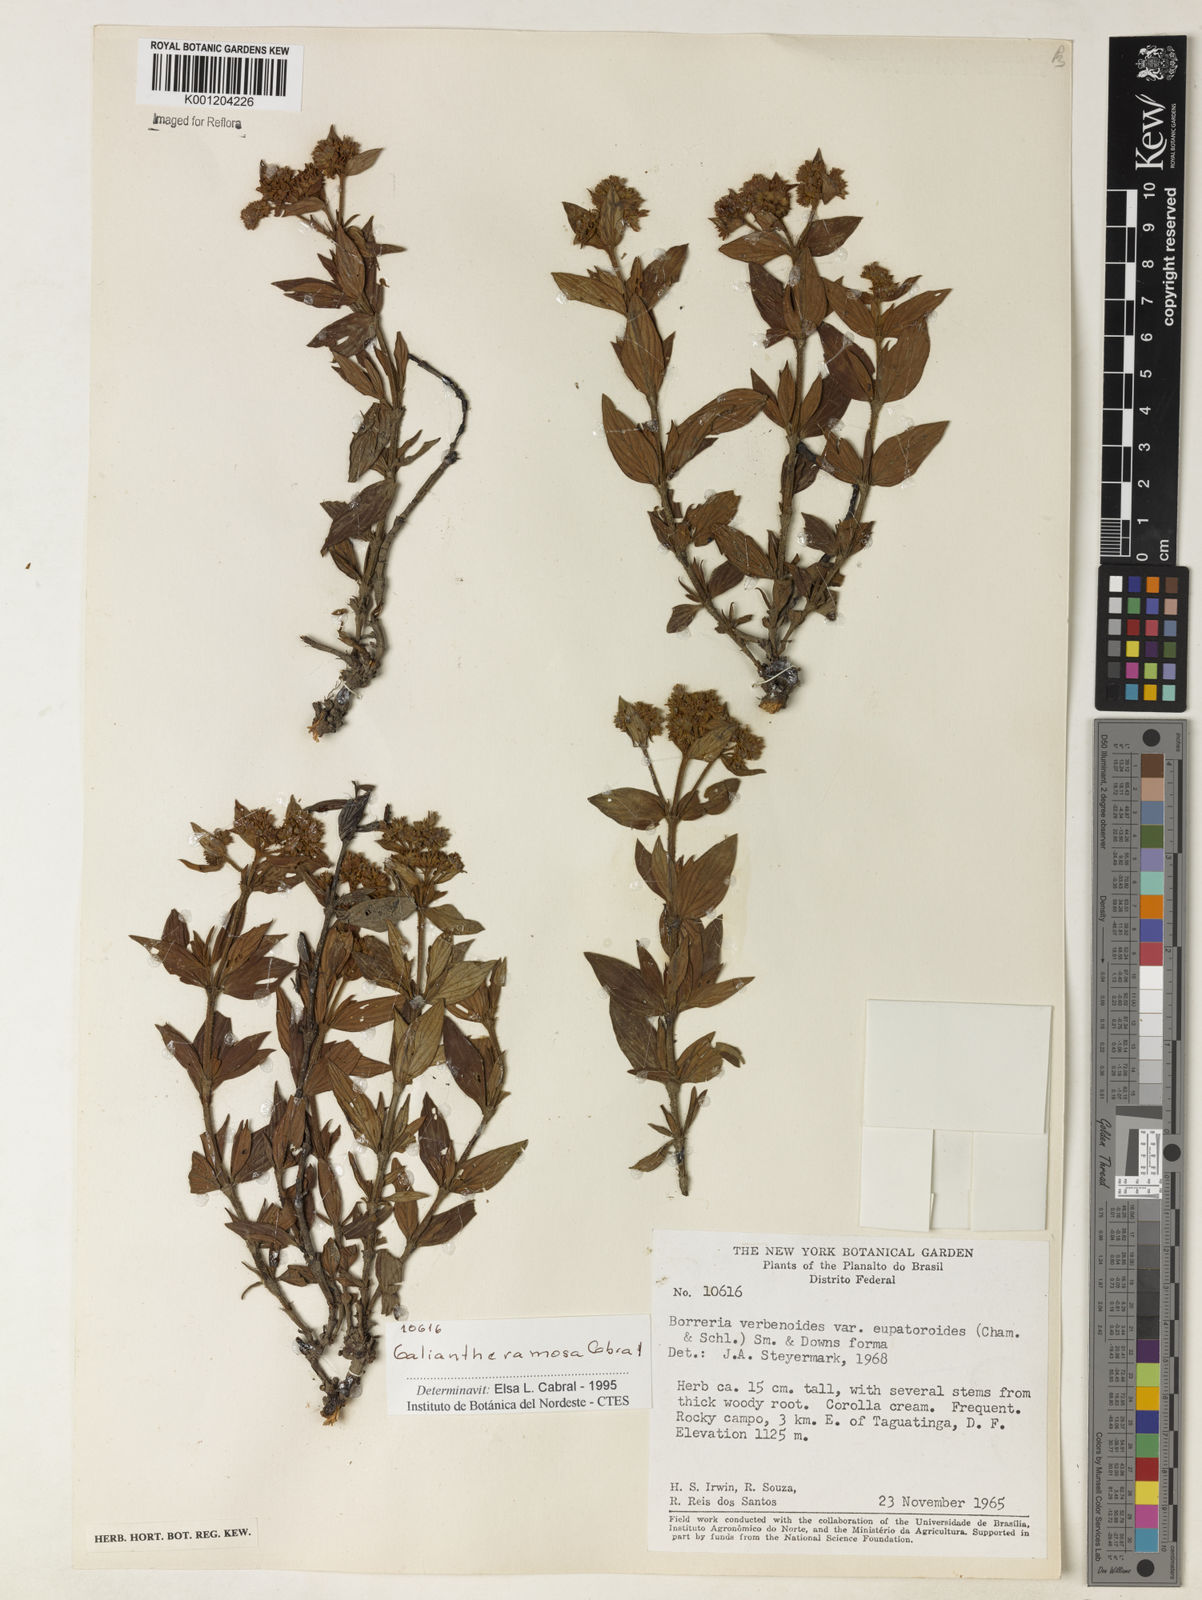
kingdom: Plantae
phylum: Tracheophyta
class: Magnoliopsida
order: Gentianales
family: Rubiaceae
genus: Galianthe
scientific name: Galianthe ramosa
